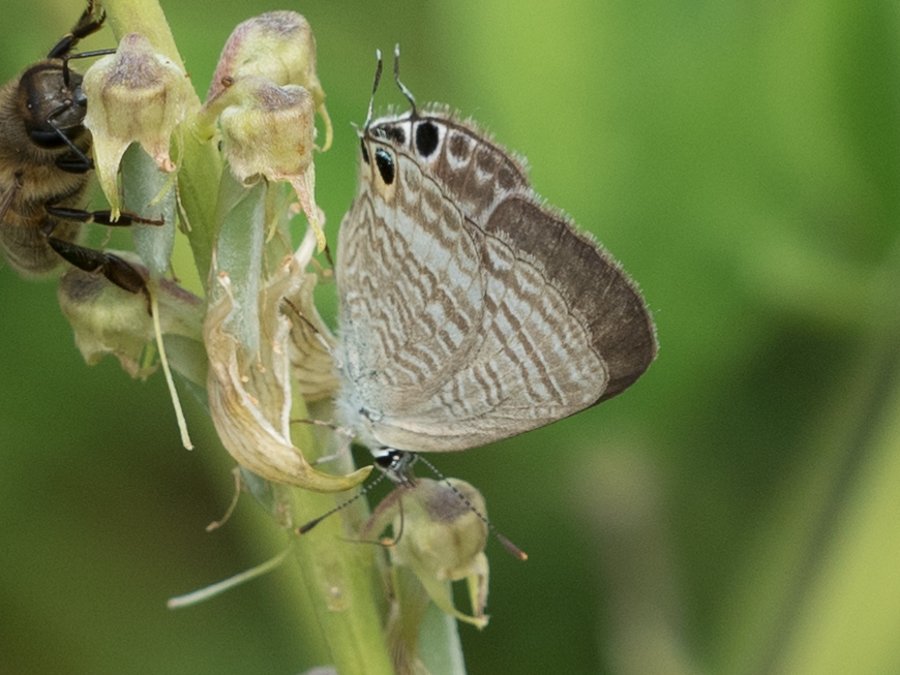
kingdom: Animalia
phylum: Arthropoda
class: Insecta
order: Lepidoptera
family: Lycaenidae
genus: Lampides
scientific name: Lampides boeticus
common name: Pea Blue
